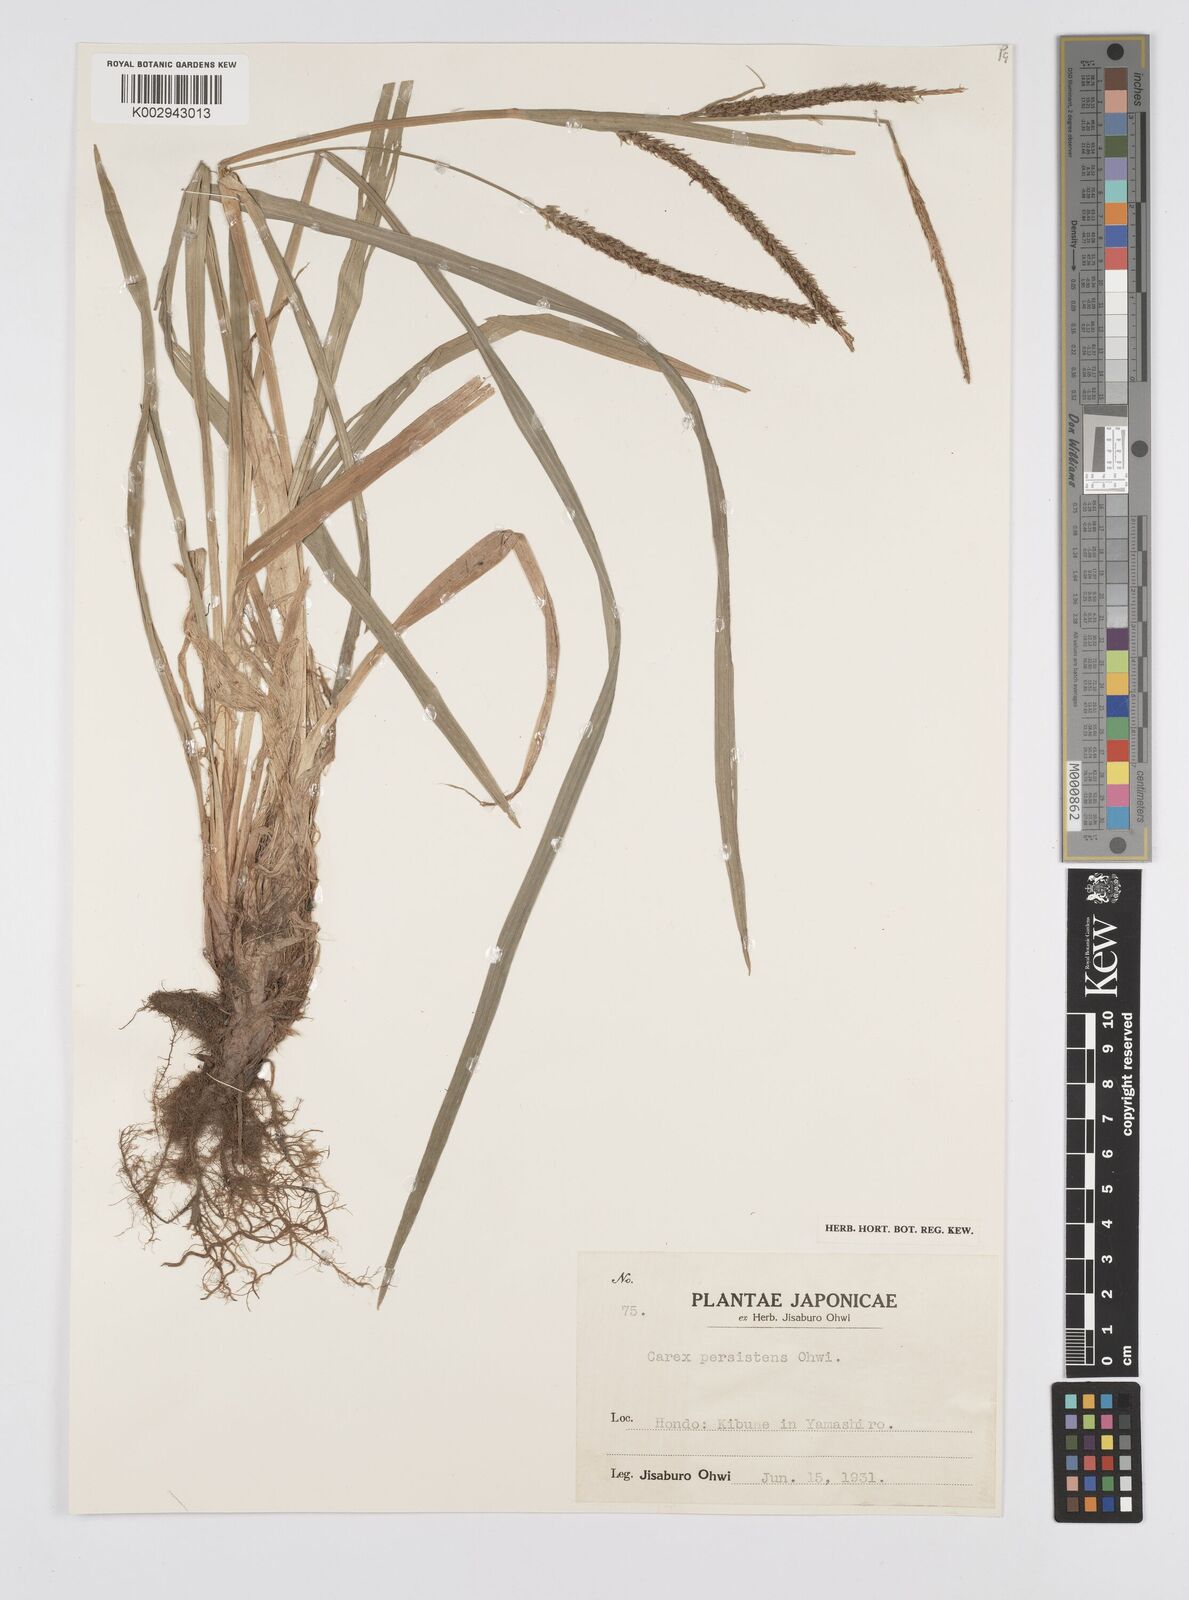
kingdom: Plantae
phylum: Tracheophyta
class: Liliopsida
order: Poales
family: Cyperaceae
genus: Carex
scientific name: Carex dispalata
